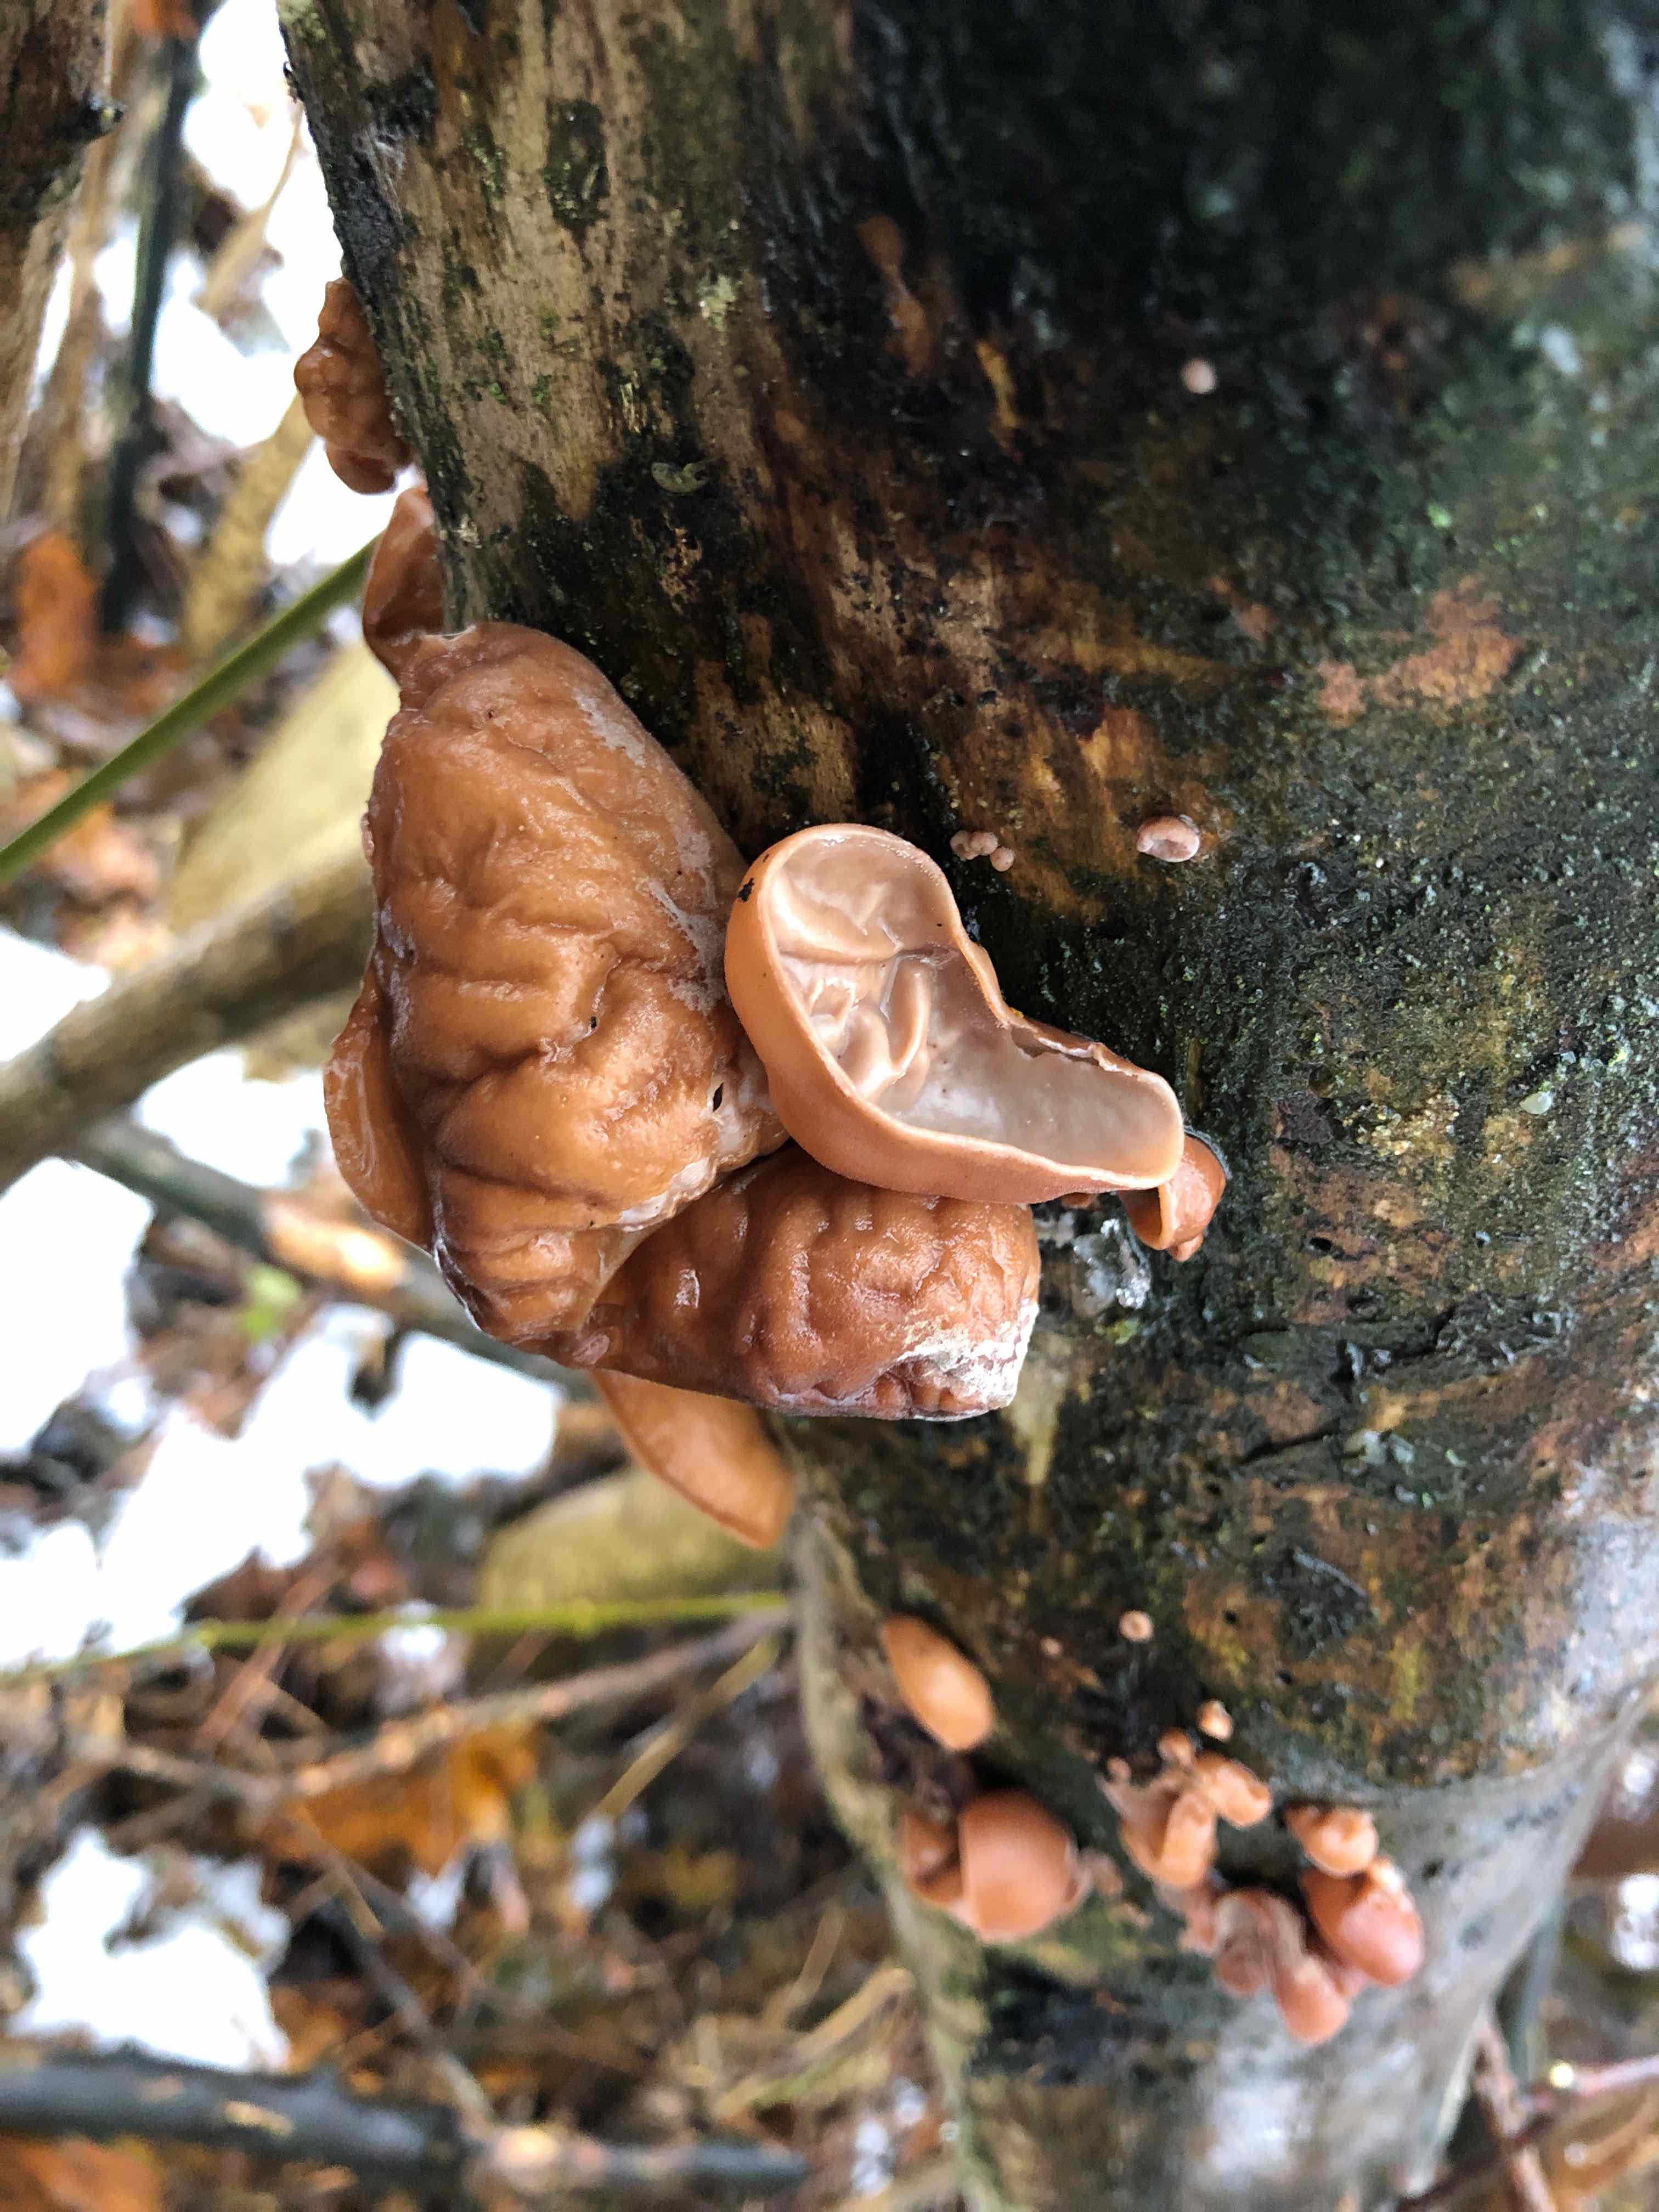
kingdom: Fungi
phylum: Basidiomycota
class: Agaricomycetes
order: Auriculariales
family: Auriculariaceae
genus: Auricularia
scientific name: Auricularia auricula-judae
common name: almindelig judasøre
